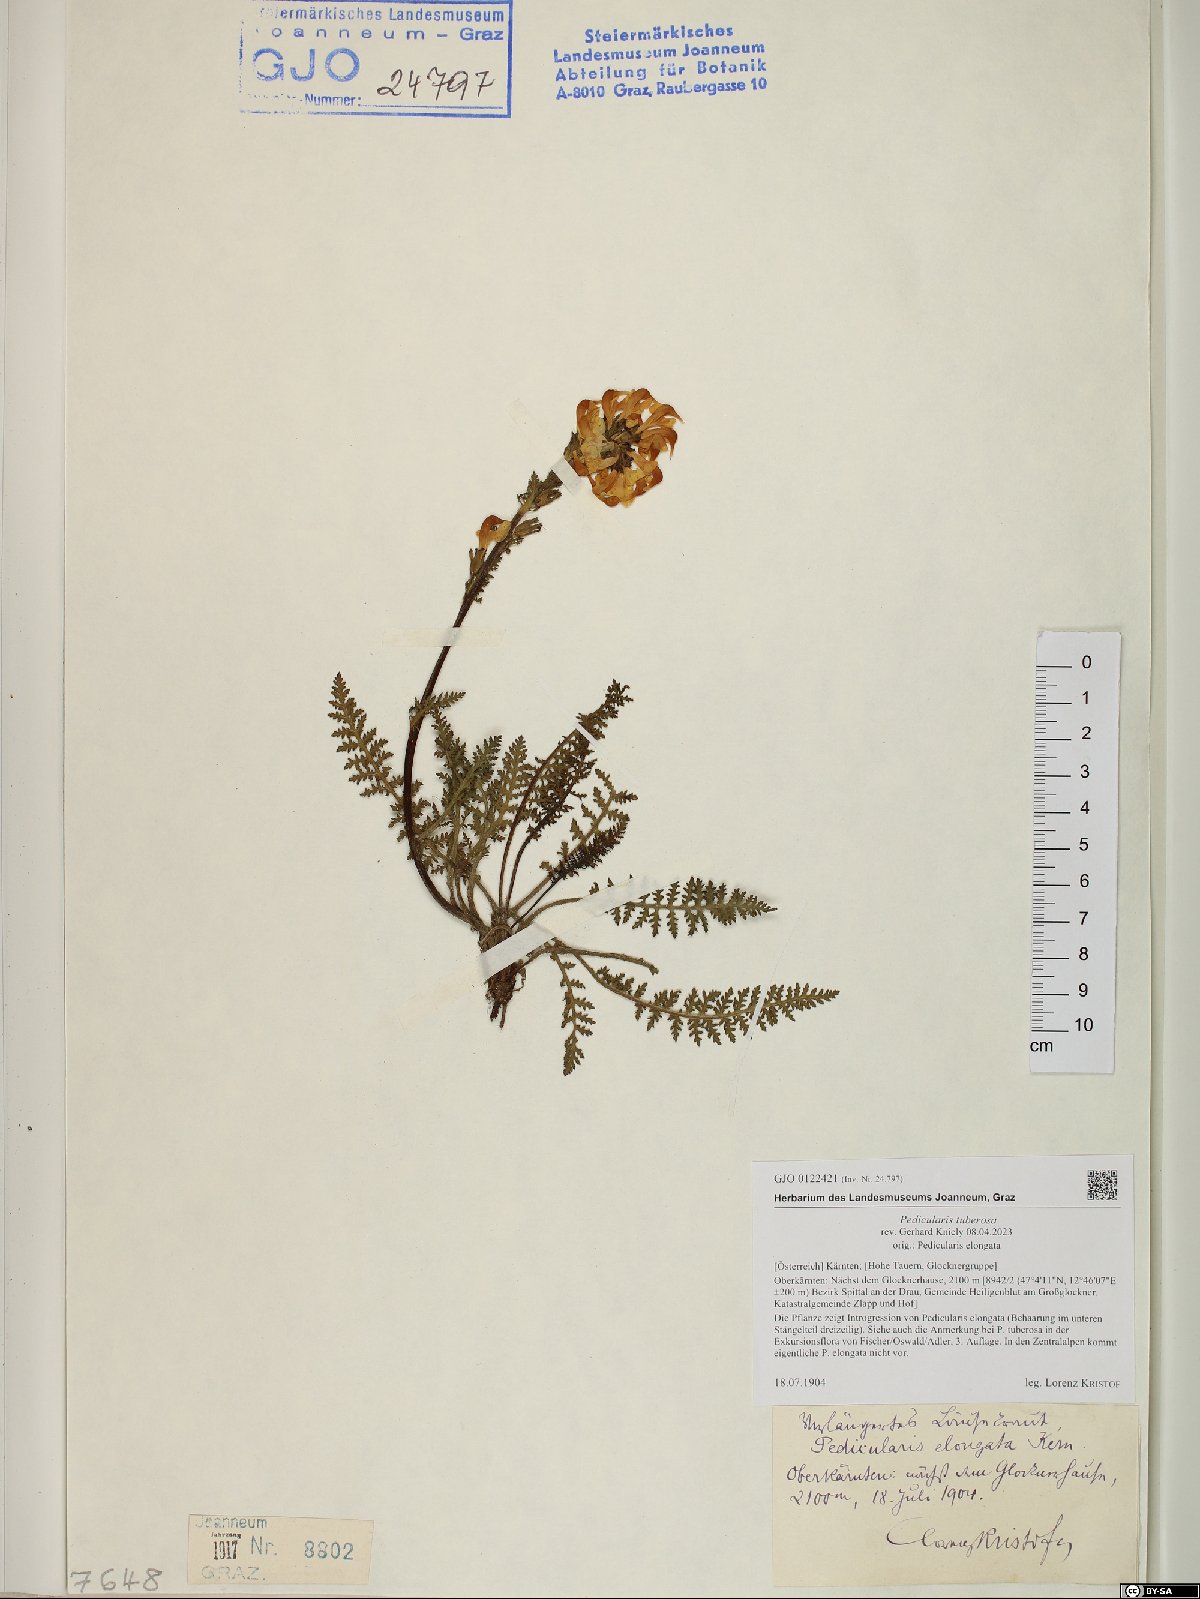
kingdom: Plantae
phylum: Tracheophyta
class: Magnoliopsida
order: Lamiales
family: Orobanchaceae
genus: Pedicularis
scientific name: Pedicularis tuberosa
